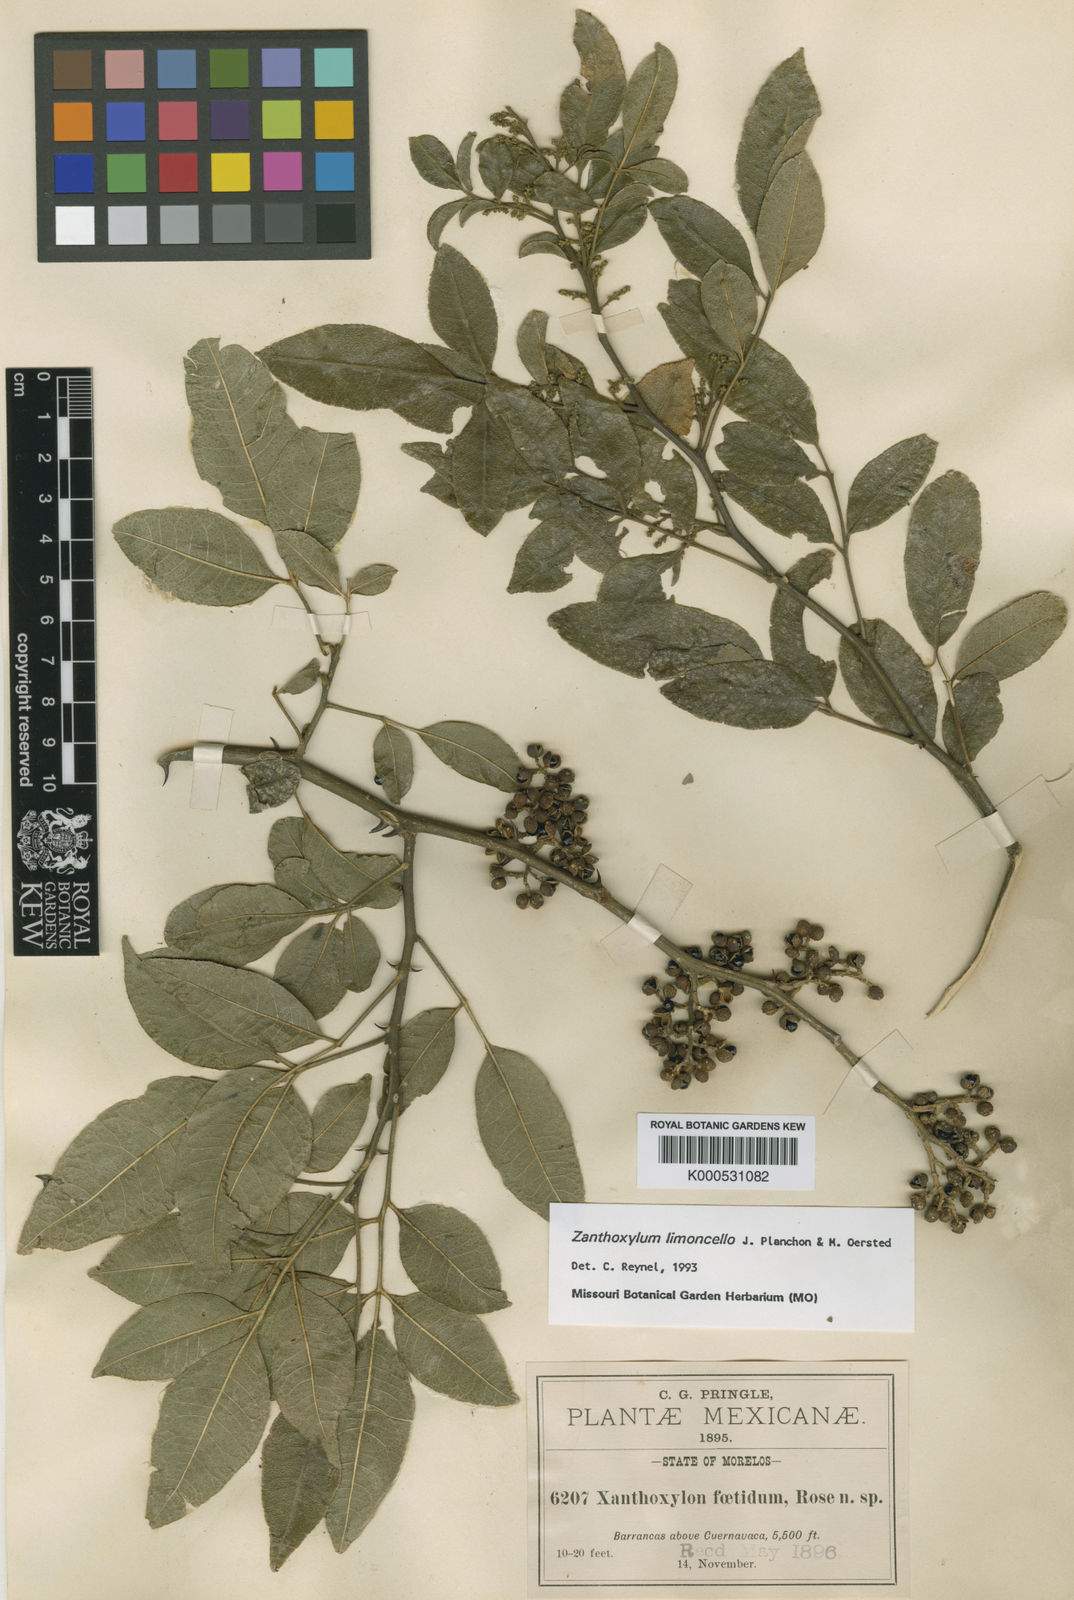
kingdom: Plantae
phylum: Tracheophyta
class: Magnoliopsida
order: Sapindales
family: Rutaceae
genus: Zanthoxylum
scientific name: Zanthoxylum limoncello
